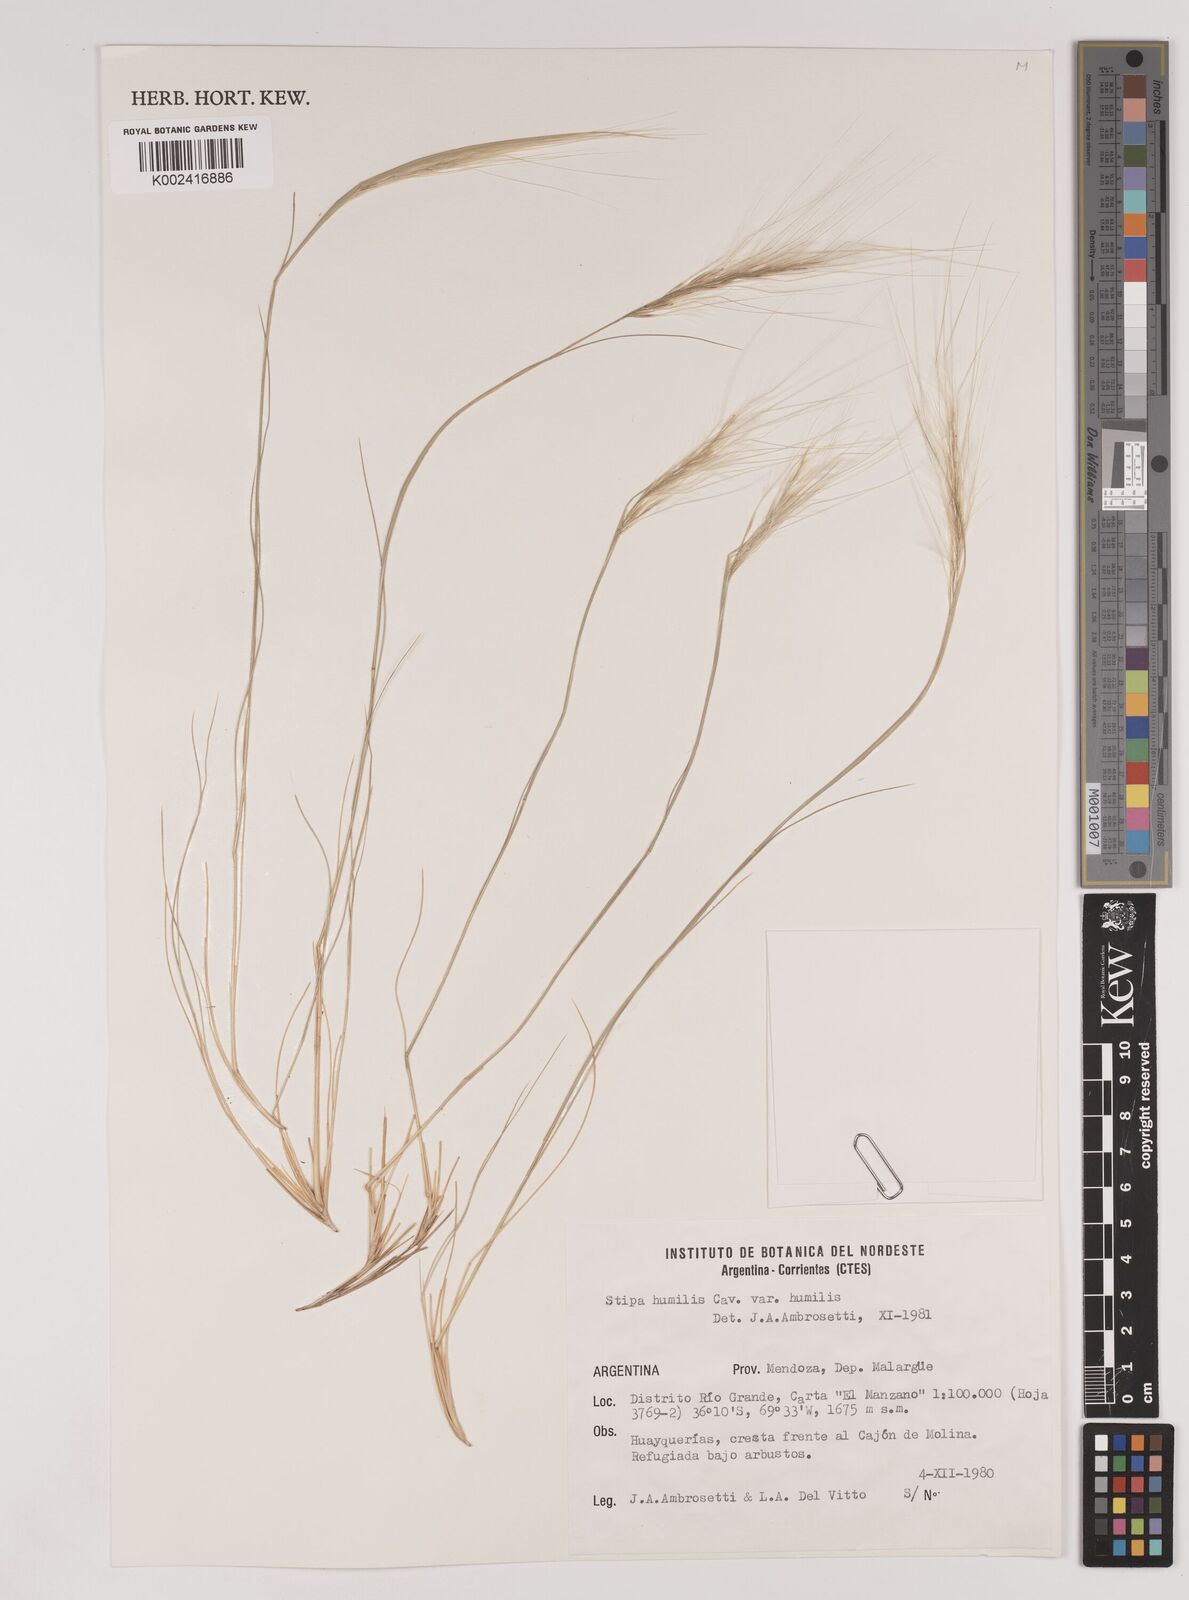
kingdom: Plantae
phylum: Tracheophyta
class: Liliopsida
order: Poales
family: Poaceae
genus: Pappostipa
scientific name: Pappostipa humilis
